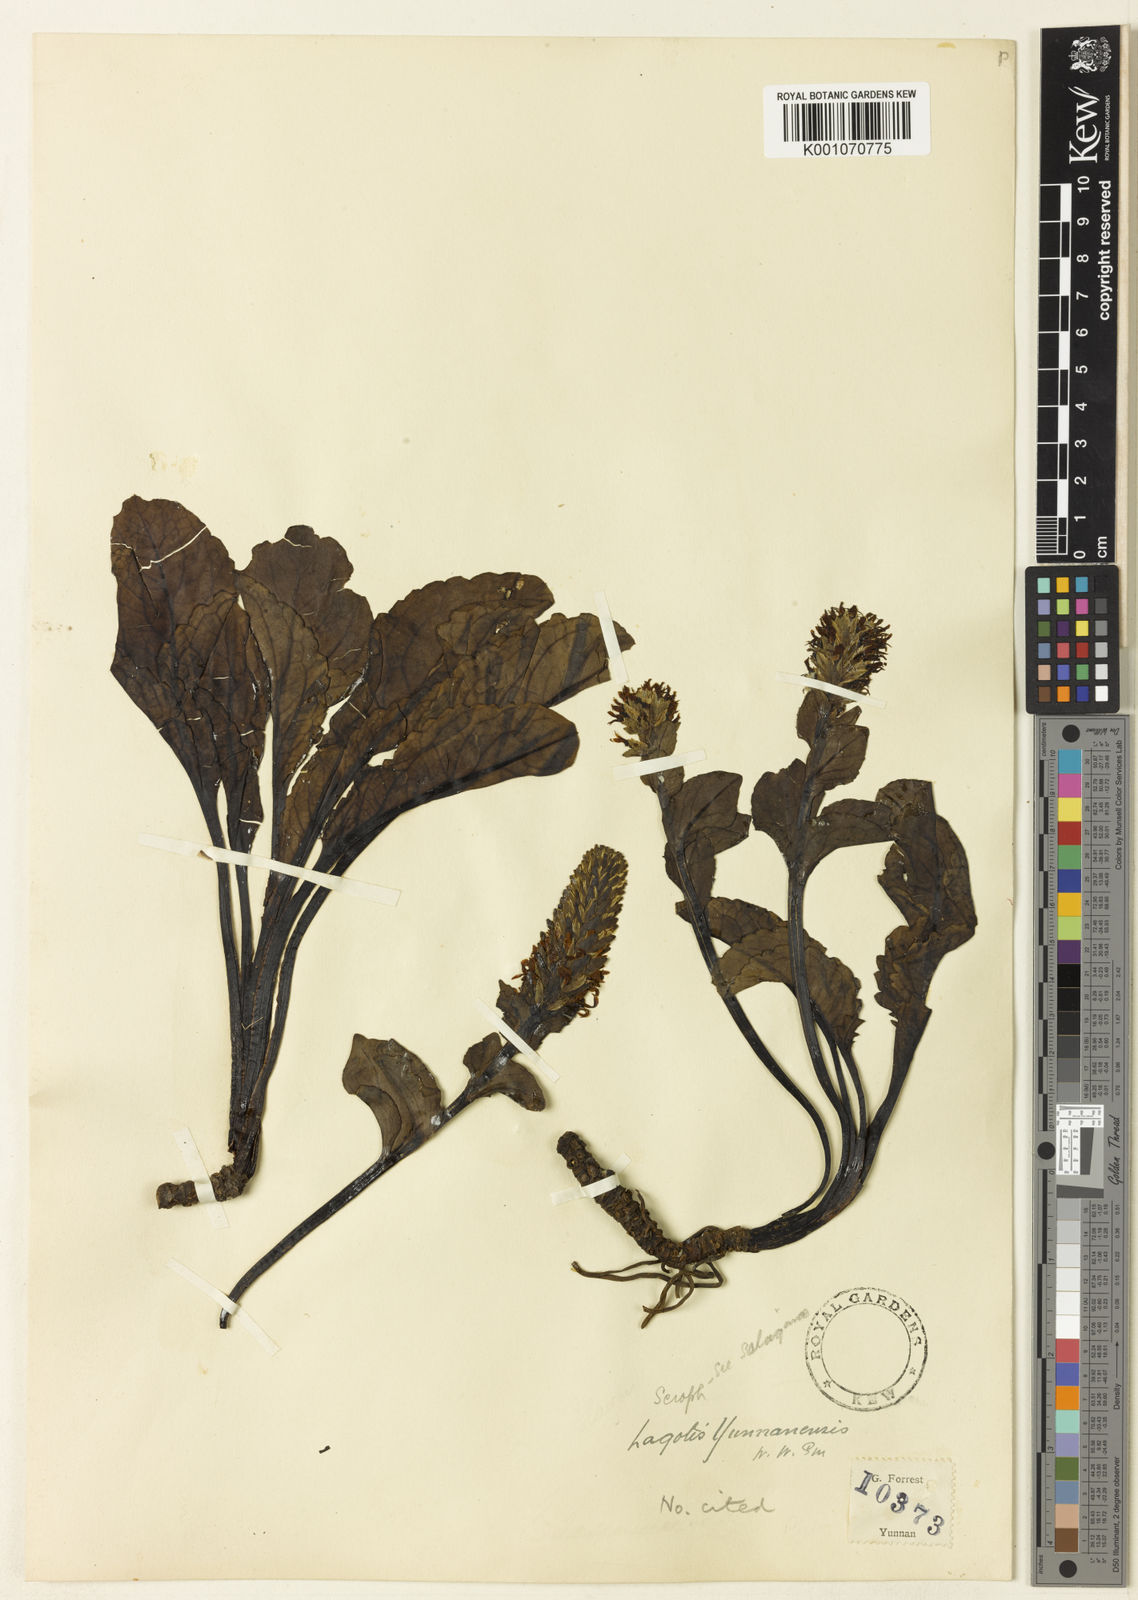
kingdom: Plantae
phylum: Tracheophyta
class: Magnoliopsida
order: Lamiales
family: Plantaginaceae
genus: Lagotis
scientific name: Lagotis yunnanensis
